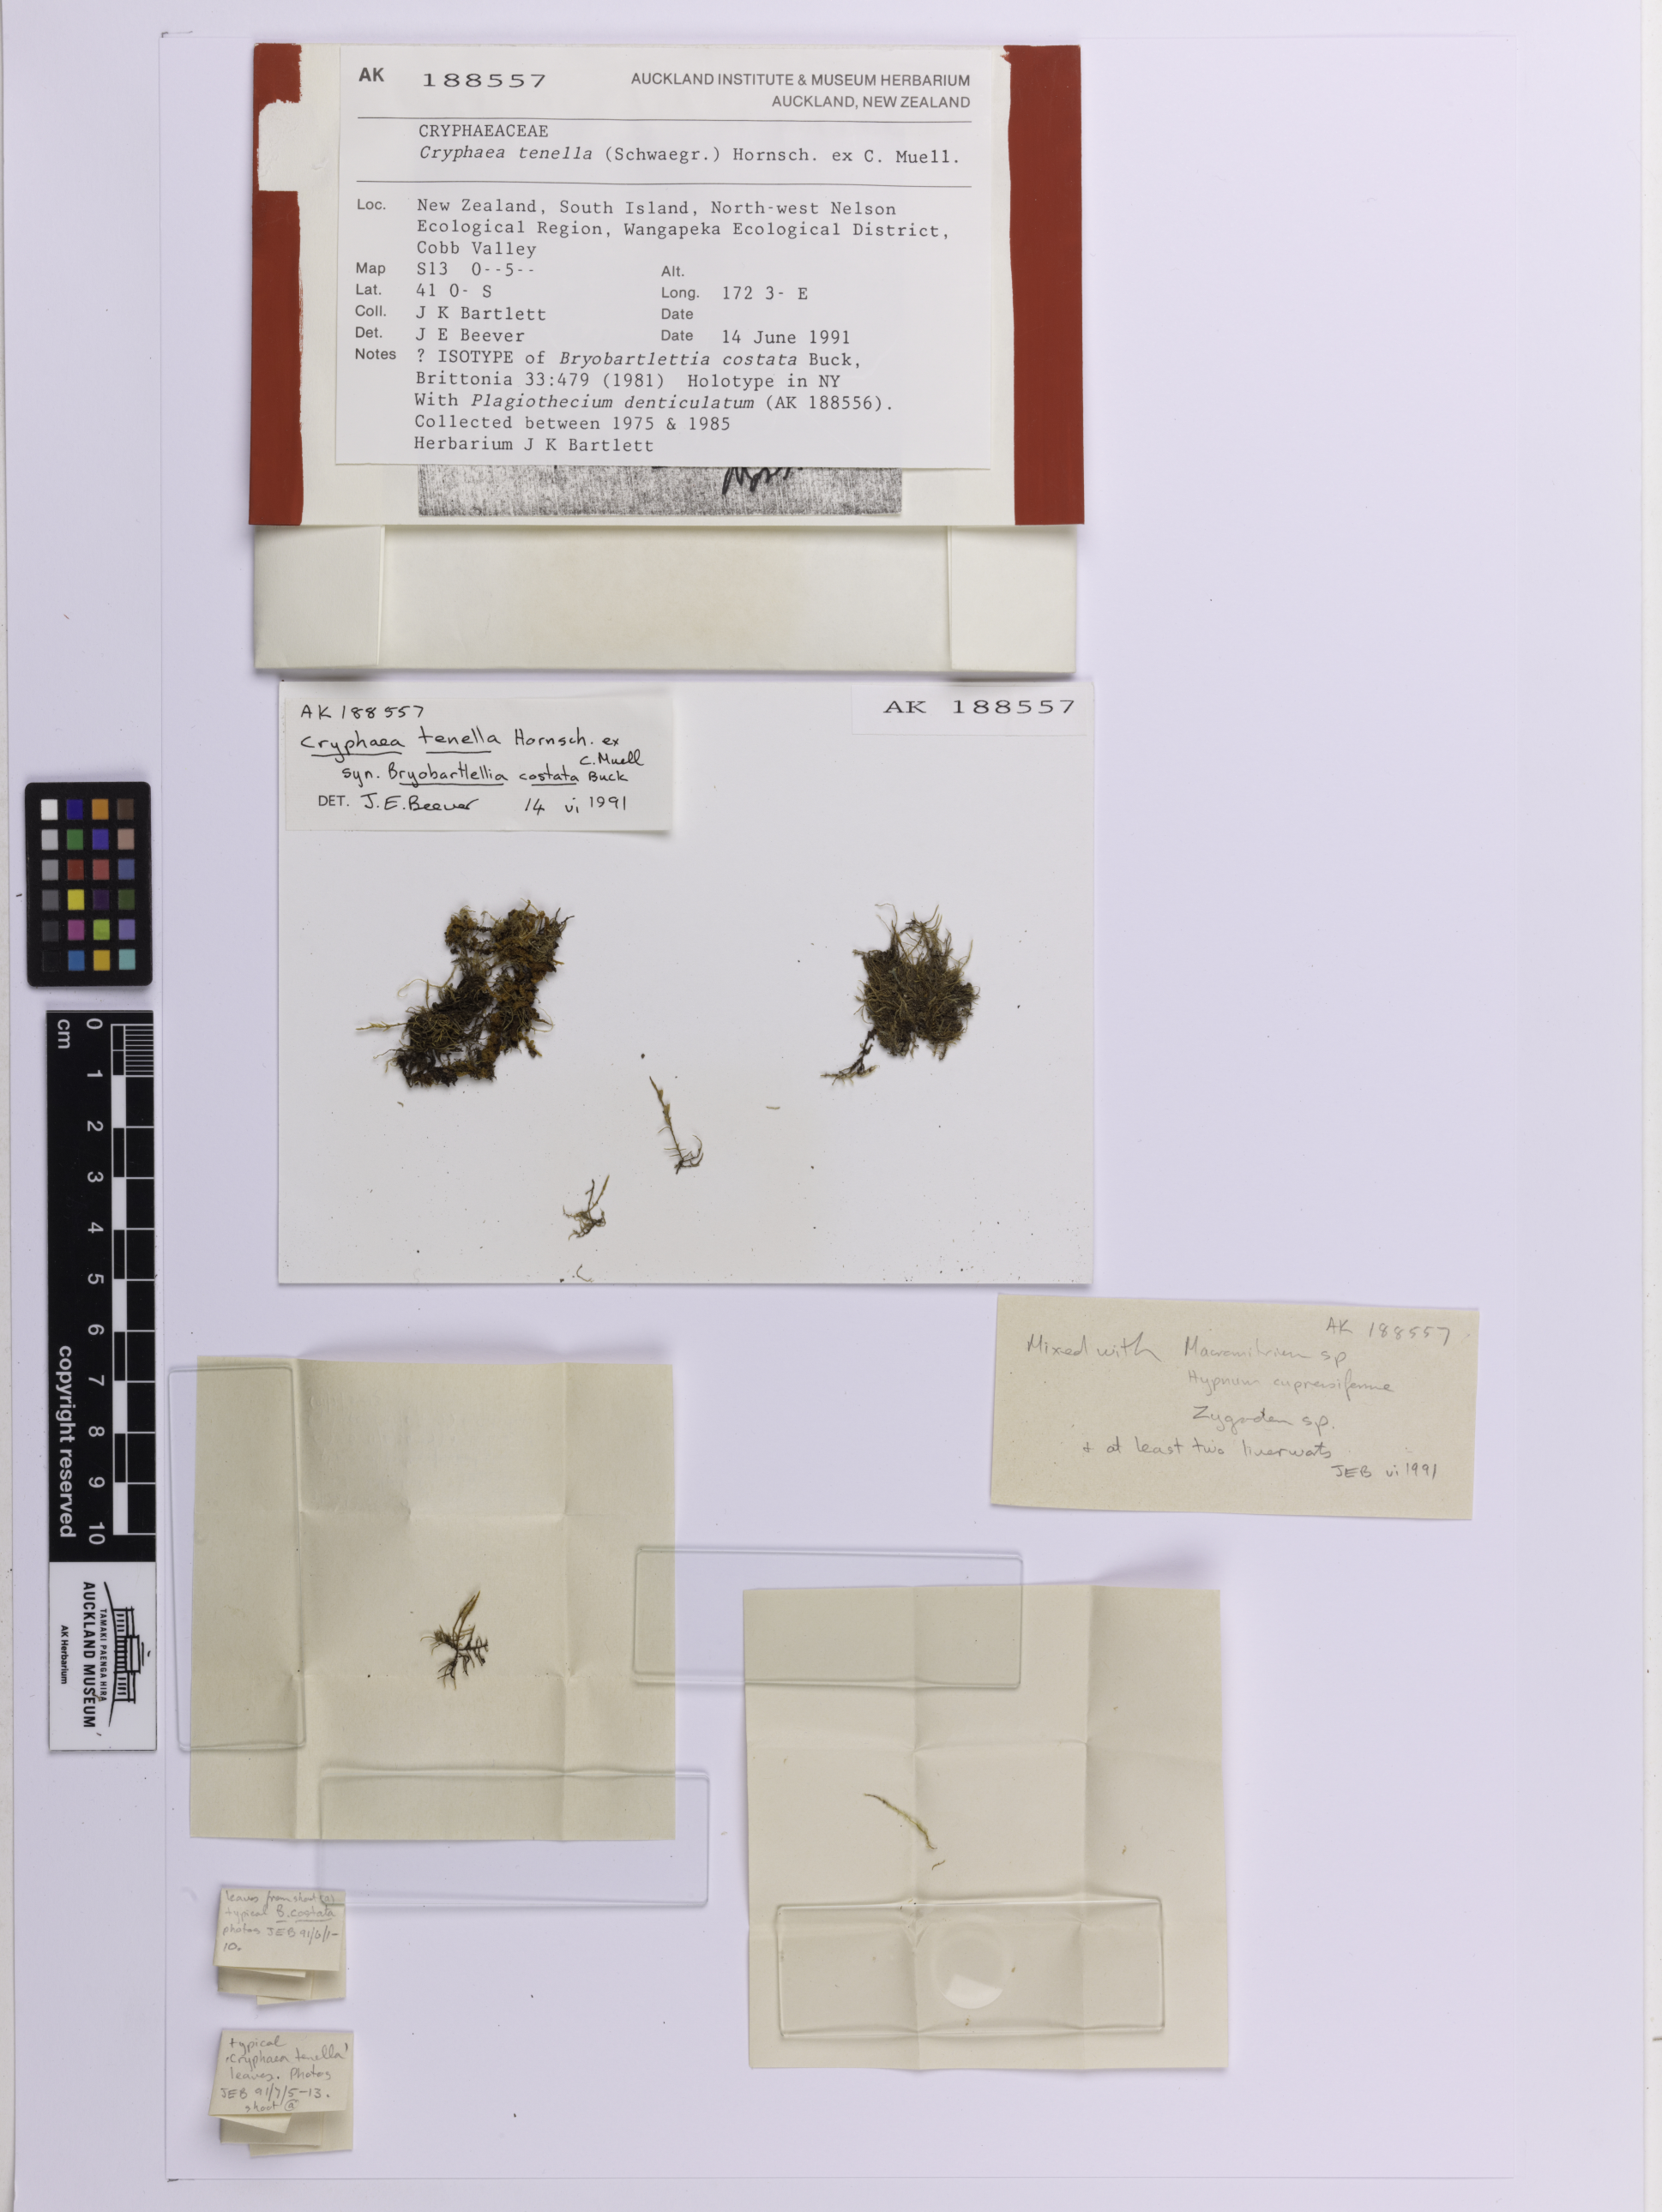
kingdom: Plantae
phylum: Bryophyta
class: Bryopsida
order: Hypnales
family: Cryphaeaceae
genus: Cryphaea
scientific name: Cryphaea tenella
